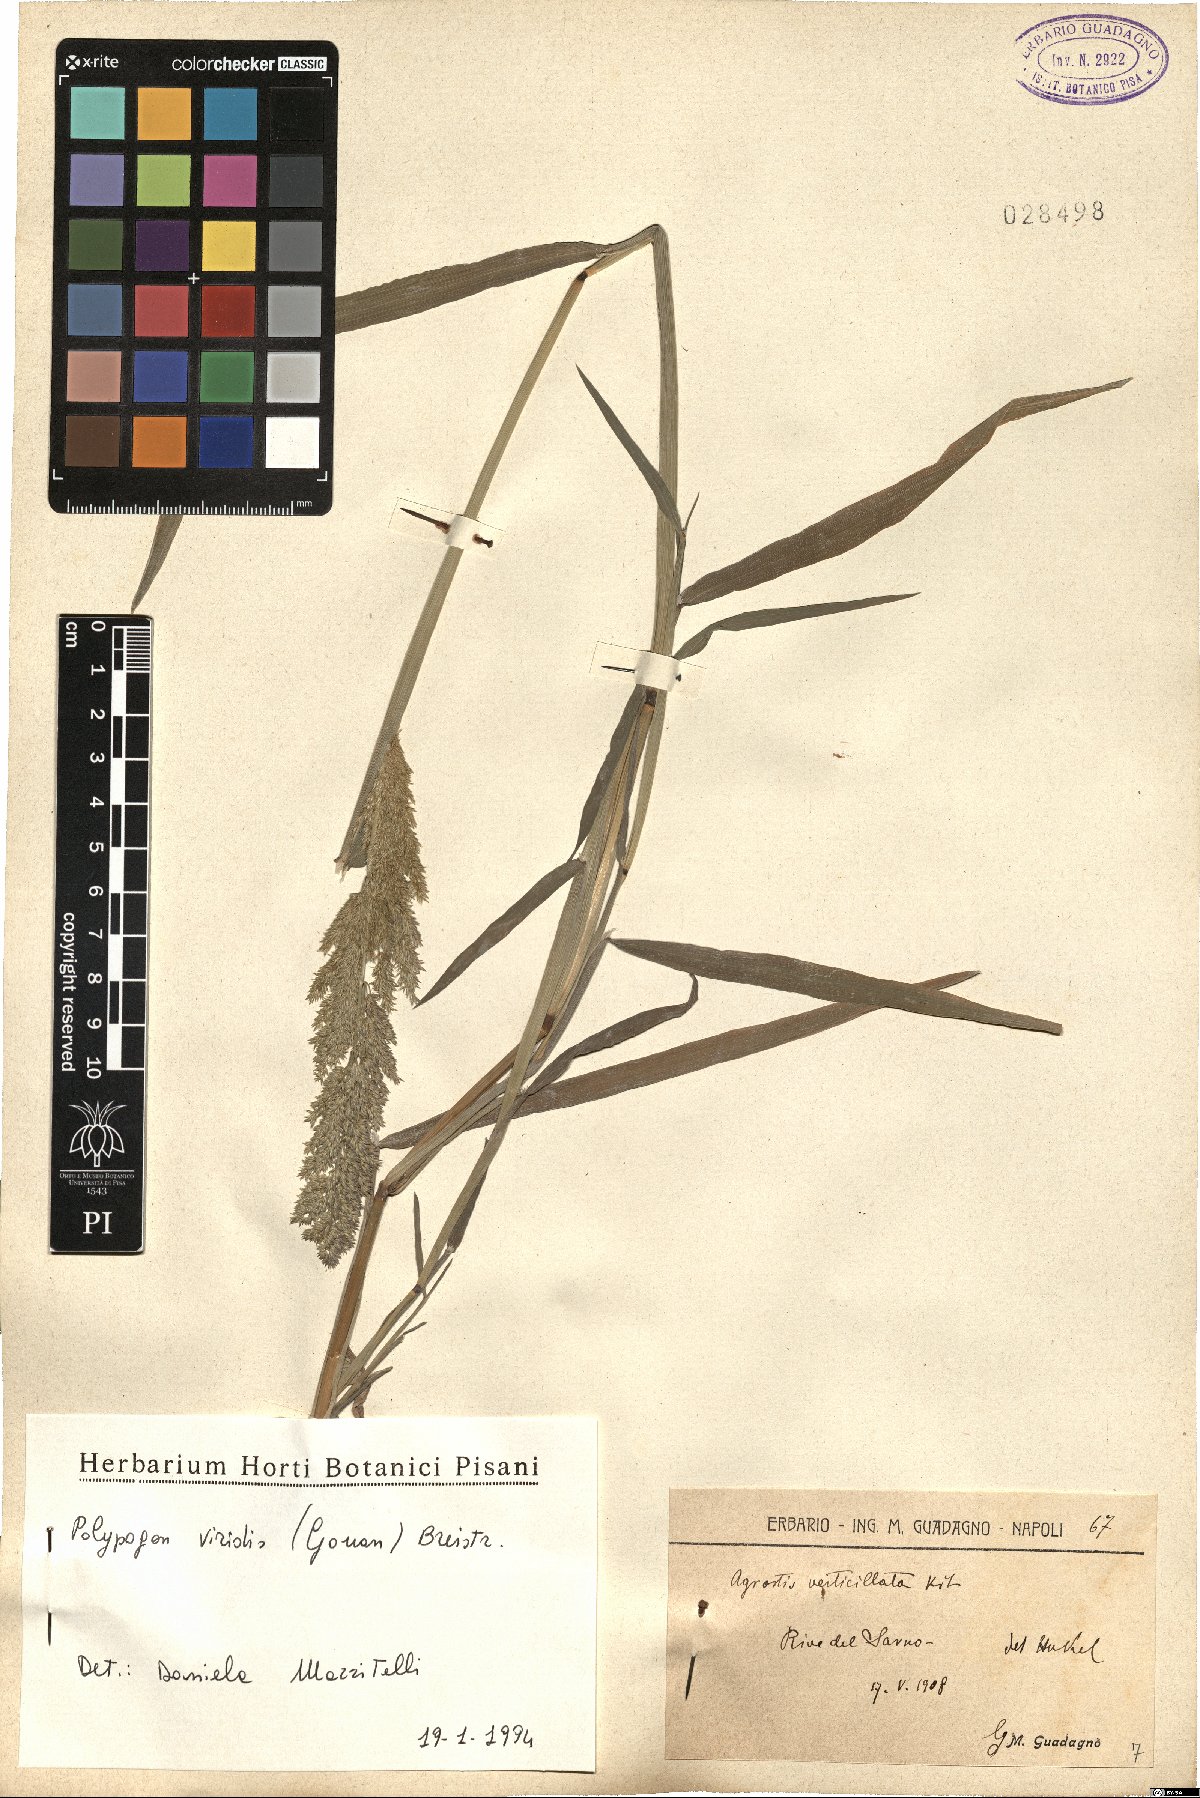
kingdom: Plantae
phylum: Tracheophyta
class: Liliopsida
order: Poales
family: Poaceae
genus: Polypogon
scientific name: Polypogon viridis
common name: Water bent
